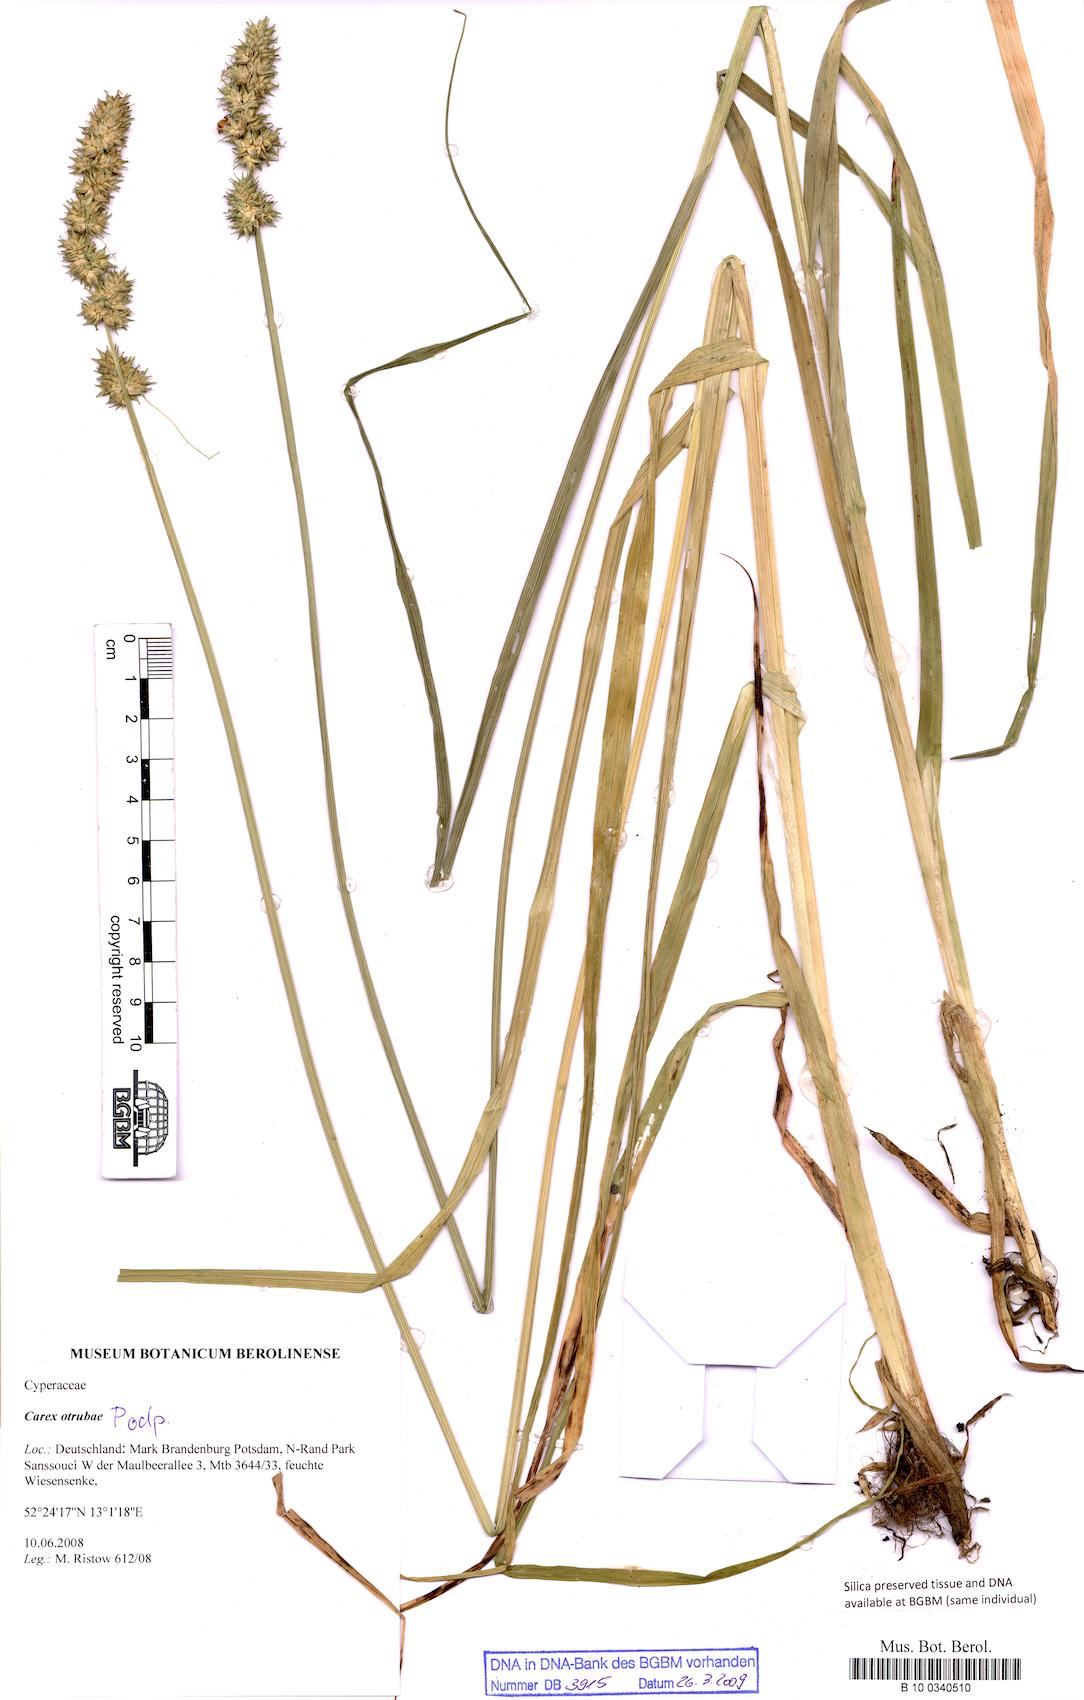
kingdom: Plantae
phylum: Tracheophyta
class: Liliopsida
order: Poales
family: Cyperaceae
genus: Carex
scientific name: Carex otrubae
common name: False fox-sedge
